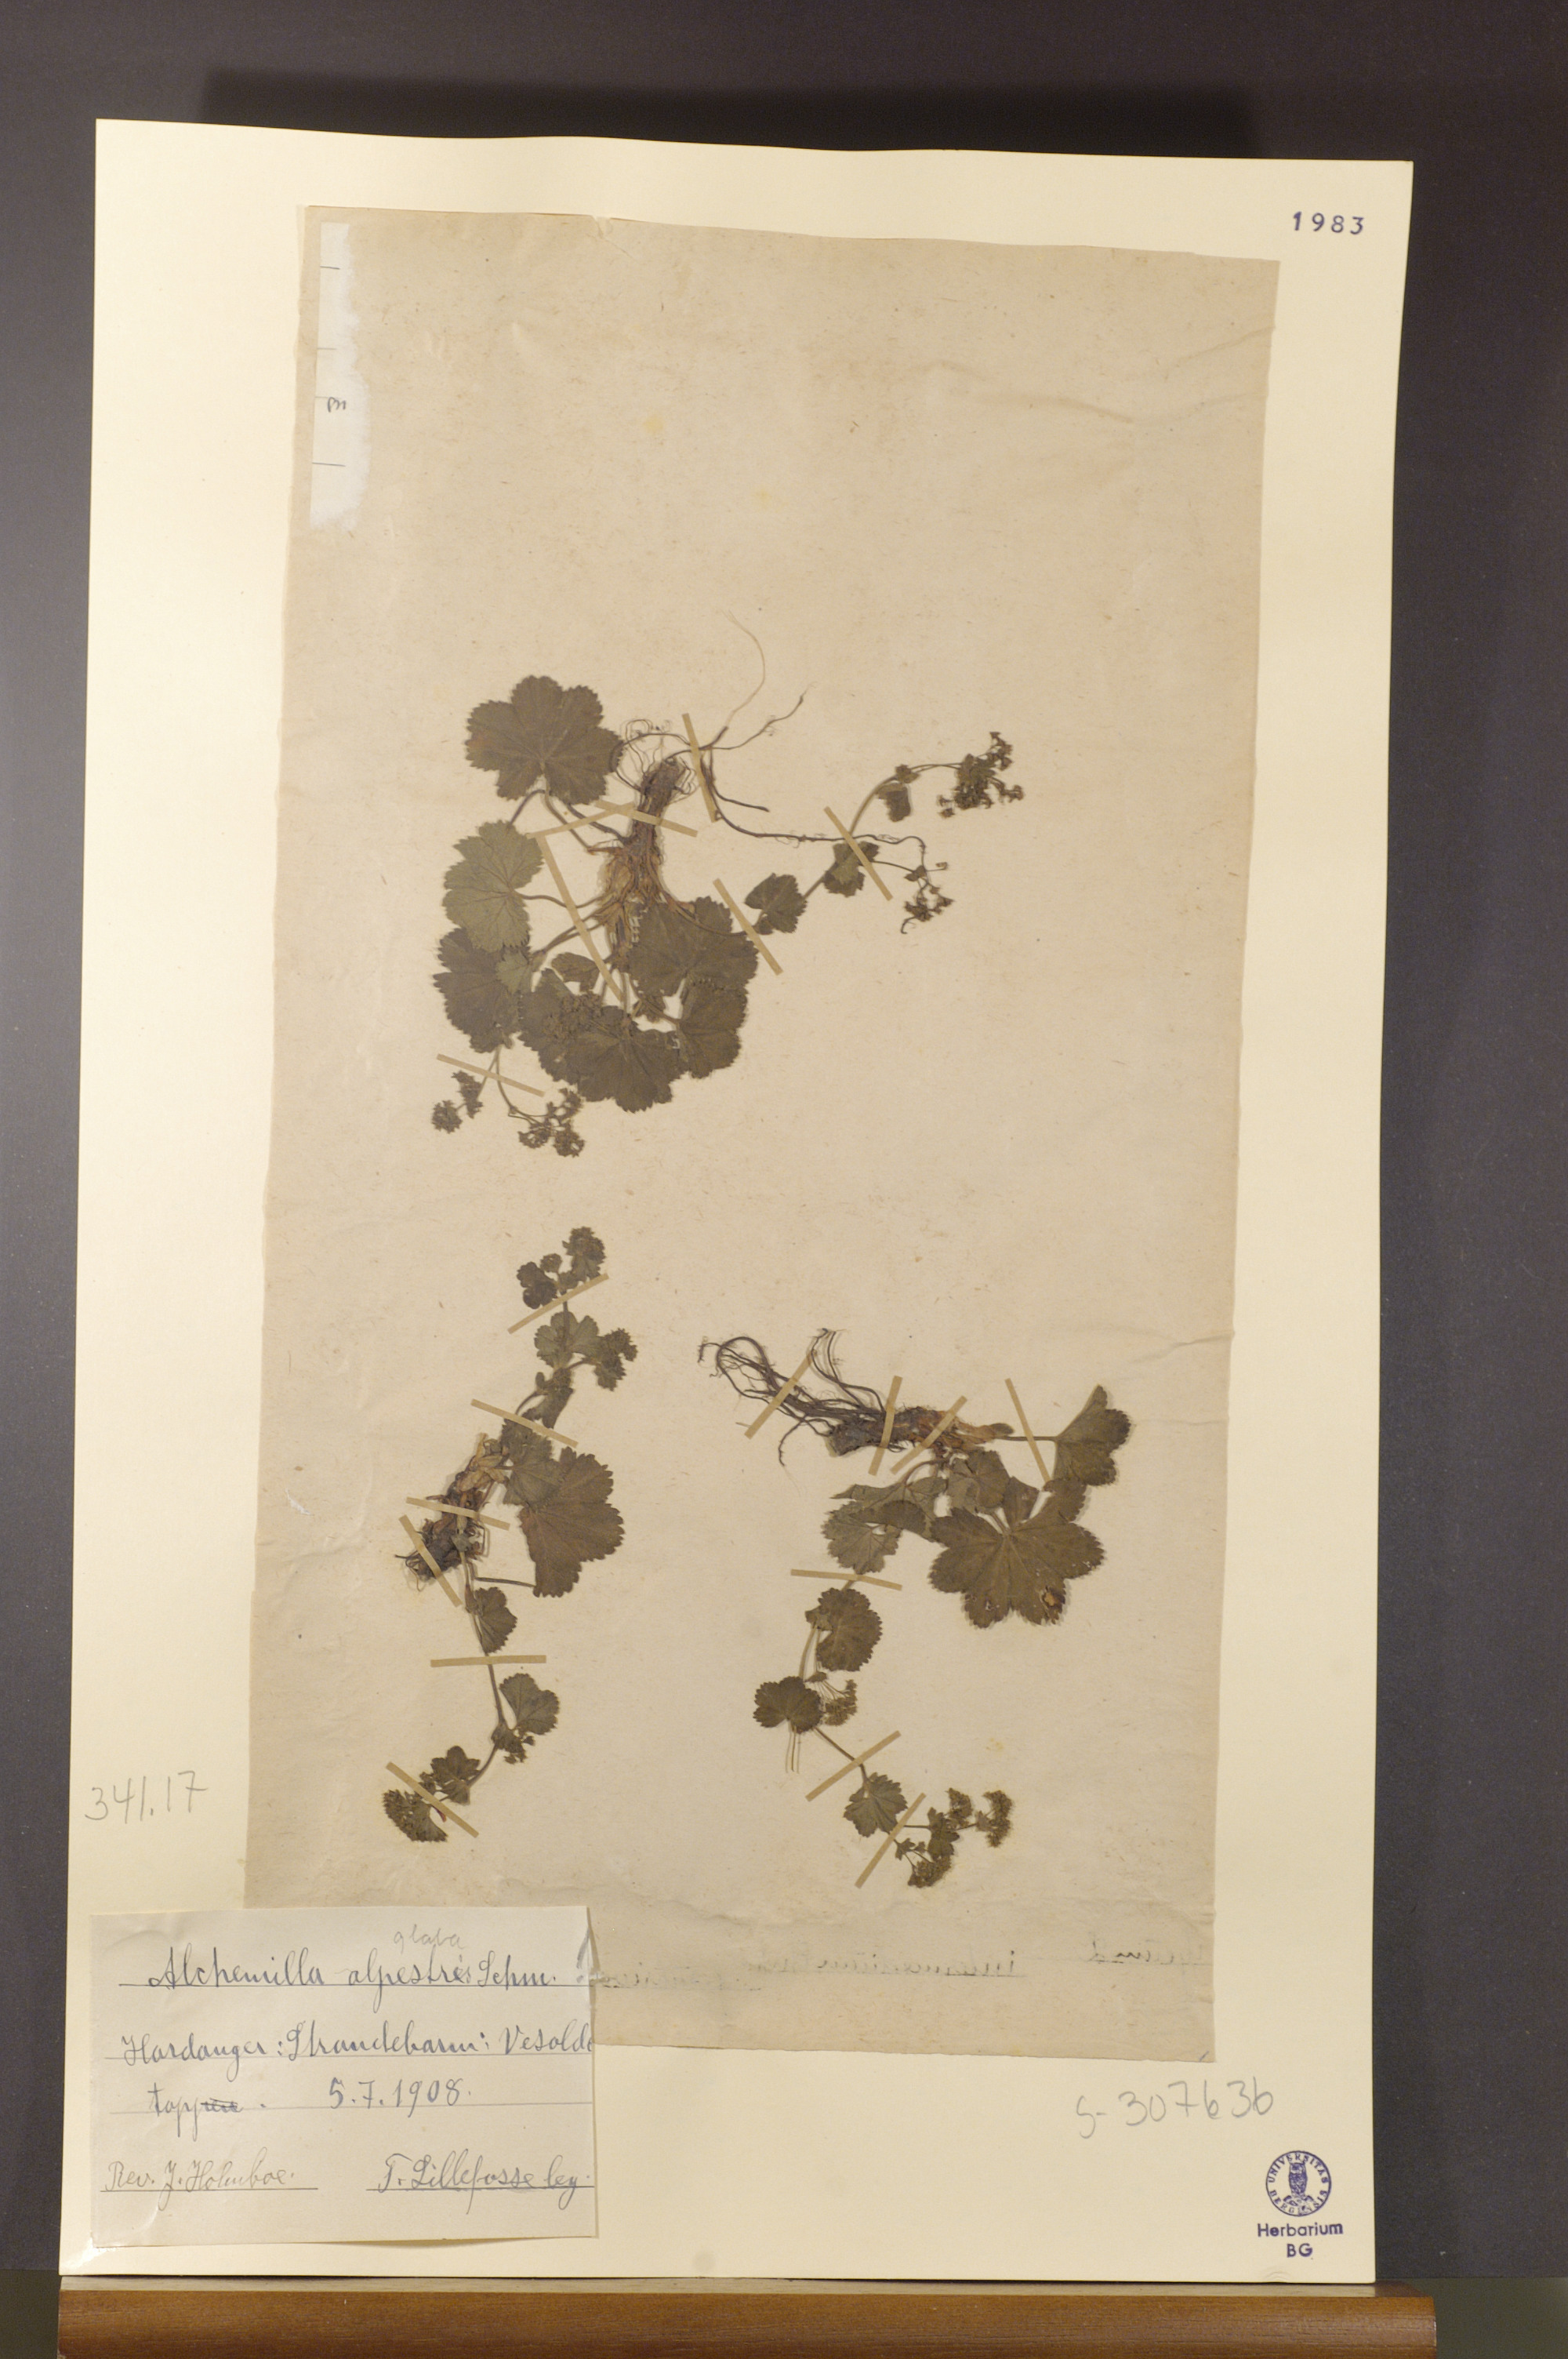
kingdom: Plantae
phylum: Tracheophyta
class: Magnoliopsida
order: Rosales
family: Rosaceae
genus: Alchemilla
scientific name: Alchemilla glabra
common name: Smooth lady's-mantle
